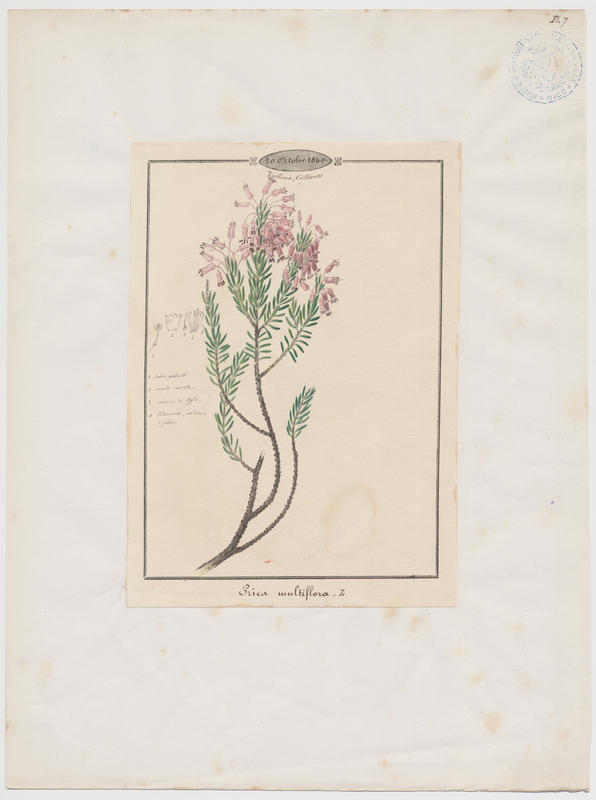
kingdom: Plantae
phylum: Tracheophyta
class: Magnoliopsida
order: Ericales
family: Ericaceae
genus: Erica
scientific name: Erica multiflora
